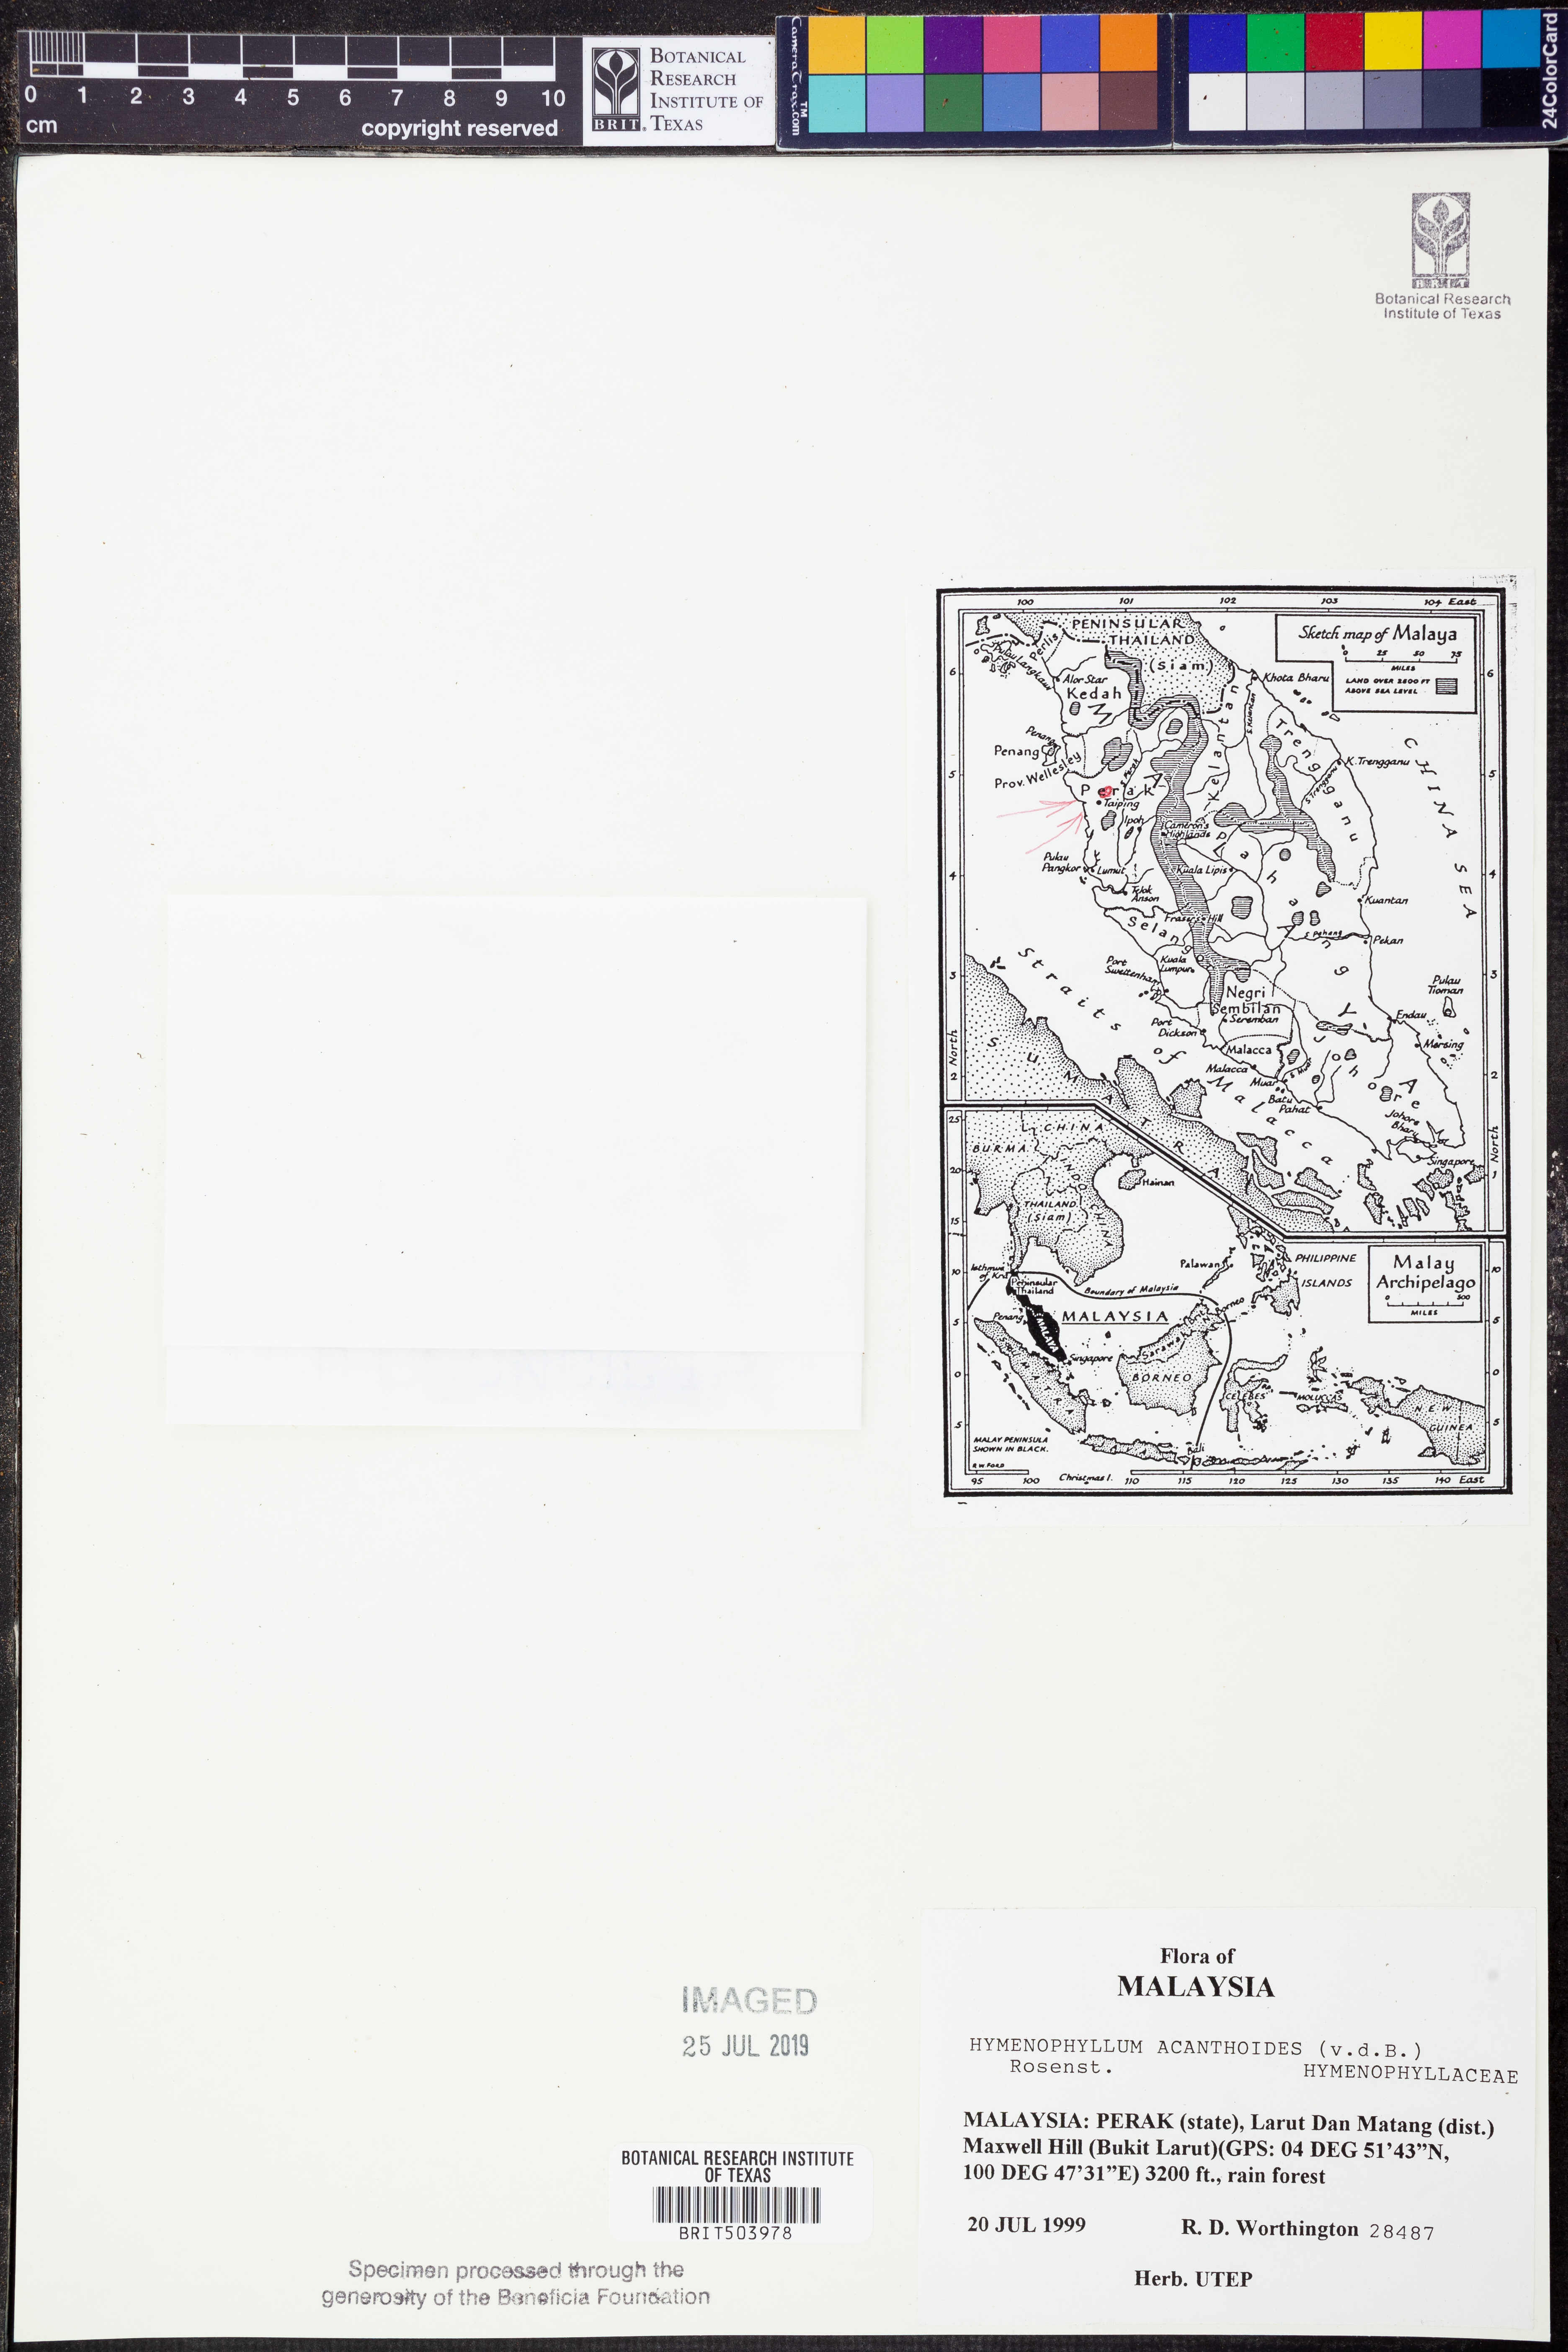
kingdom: Plantae
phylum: Tracheophyta
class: Polypodiopsida
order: Hymenophyllales
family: Hymenophyllaceae
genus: Hymenophyllum
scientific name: Hymenophyllum acanthoides
